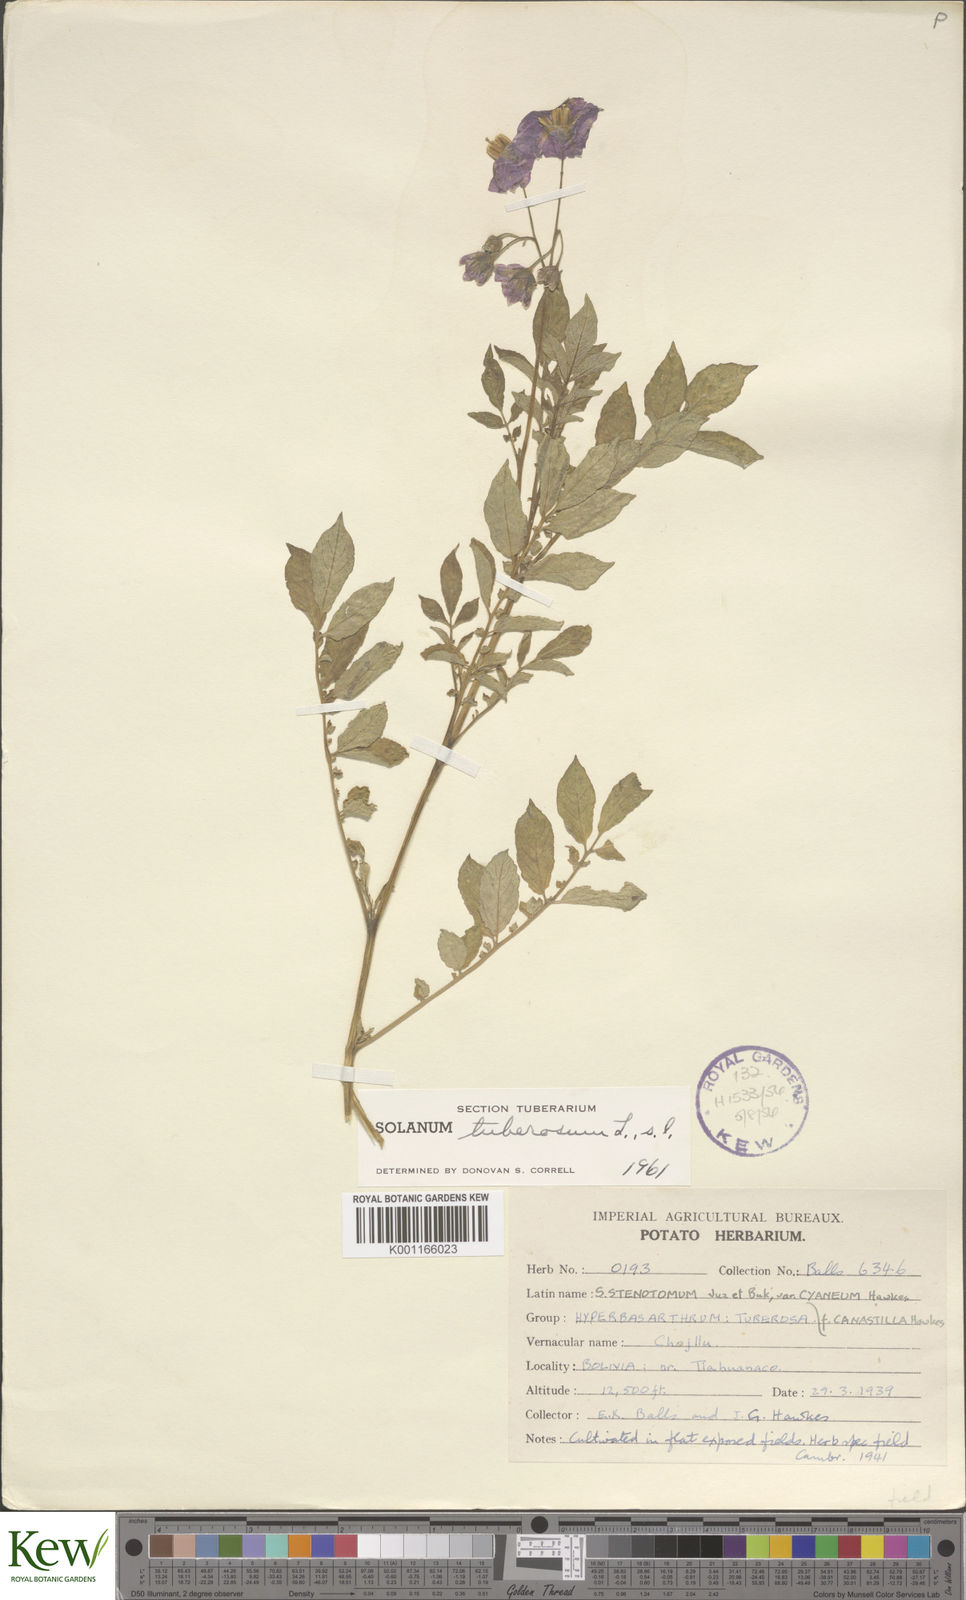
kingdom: Plantae
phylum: Tracheophyta
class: Magnoliopsida
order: Solanales
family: Solanaceae
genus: Solanum
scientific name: Solanum tuberosum
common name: Potato
